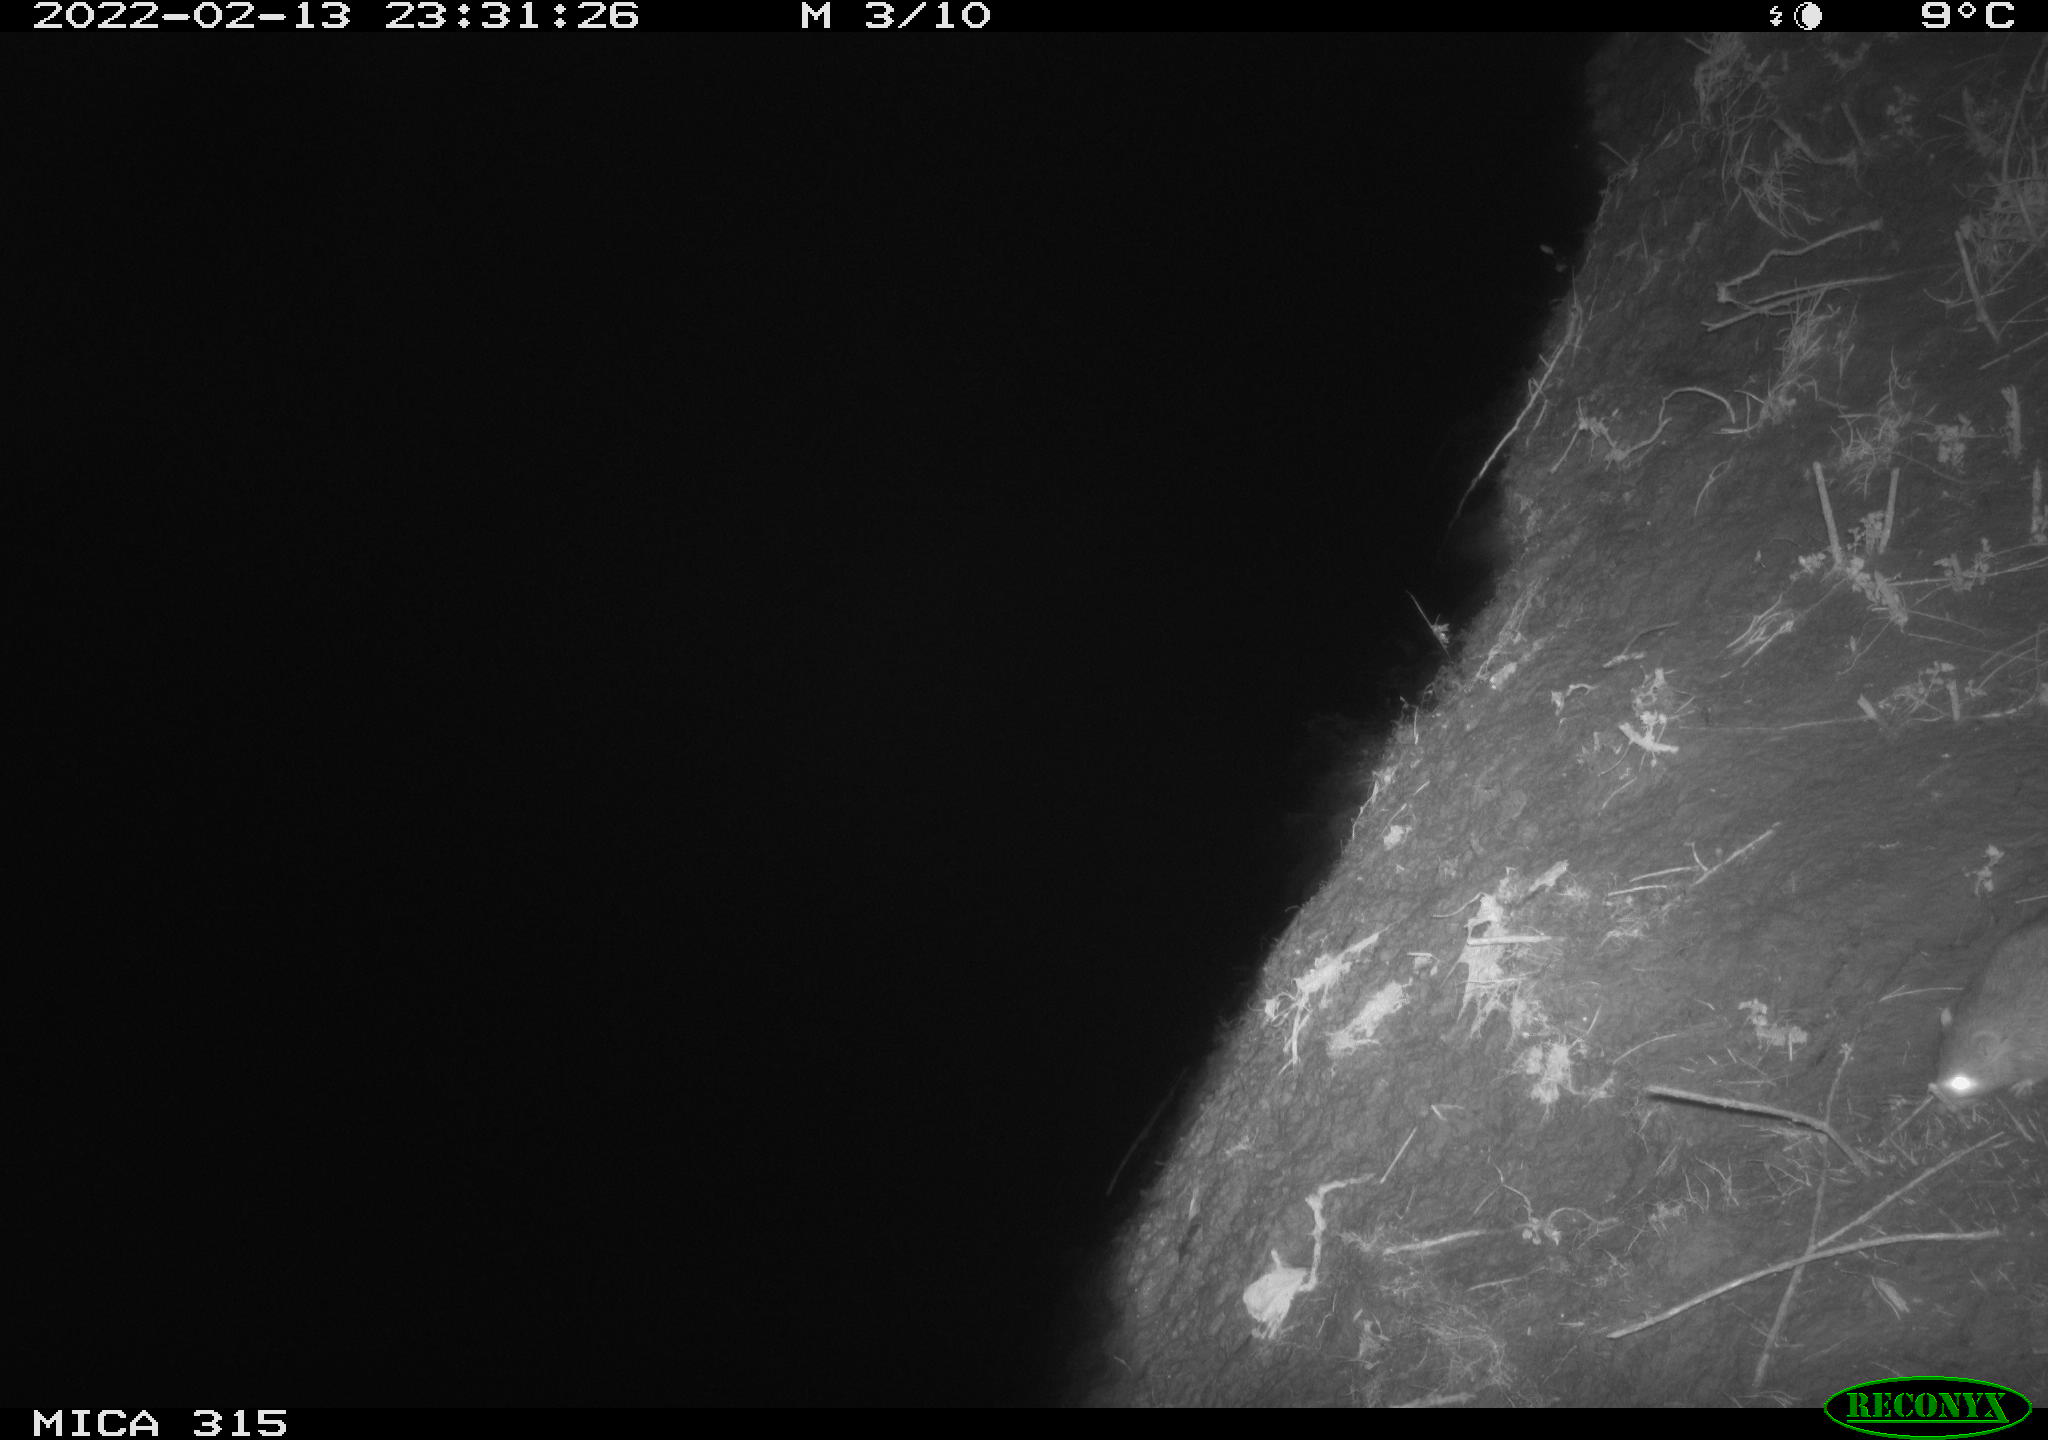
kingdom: Animalia
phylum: Chordata
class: Mammalia
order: Rodentia
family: Muridae
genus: Rattus
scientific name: Rattus norvegicus
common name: Brown rat
